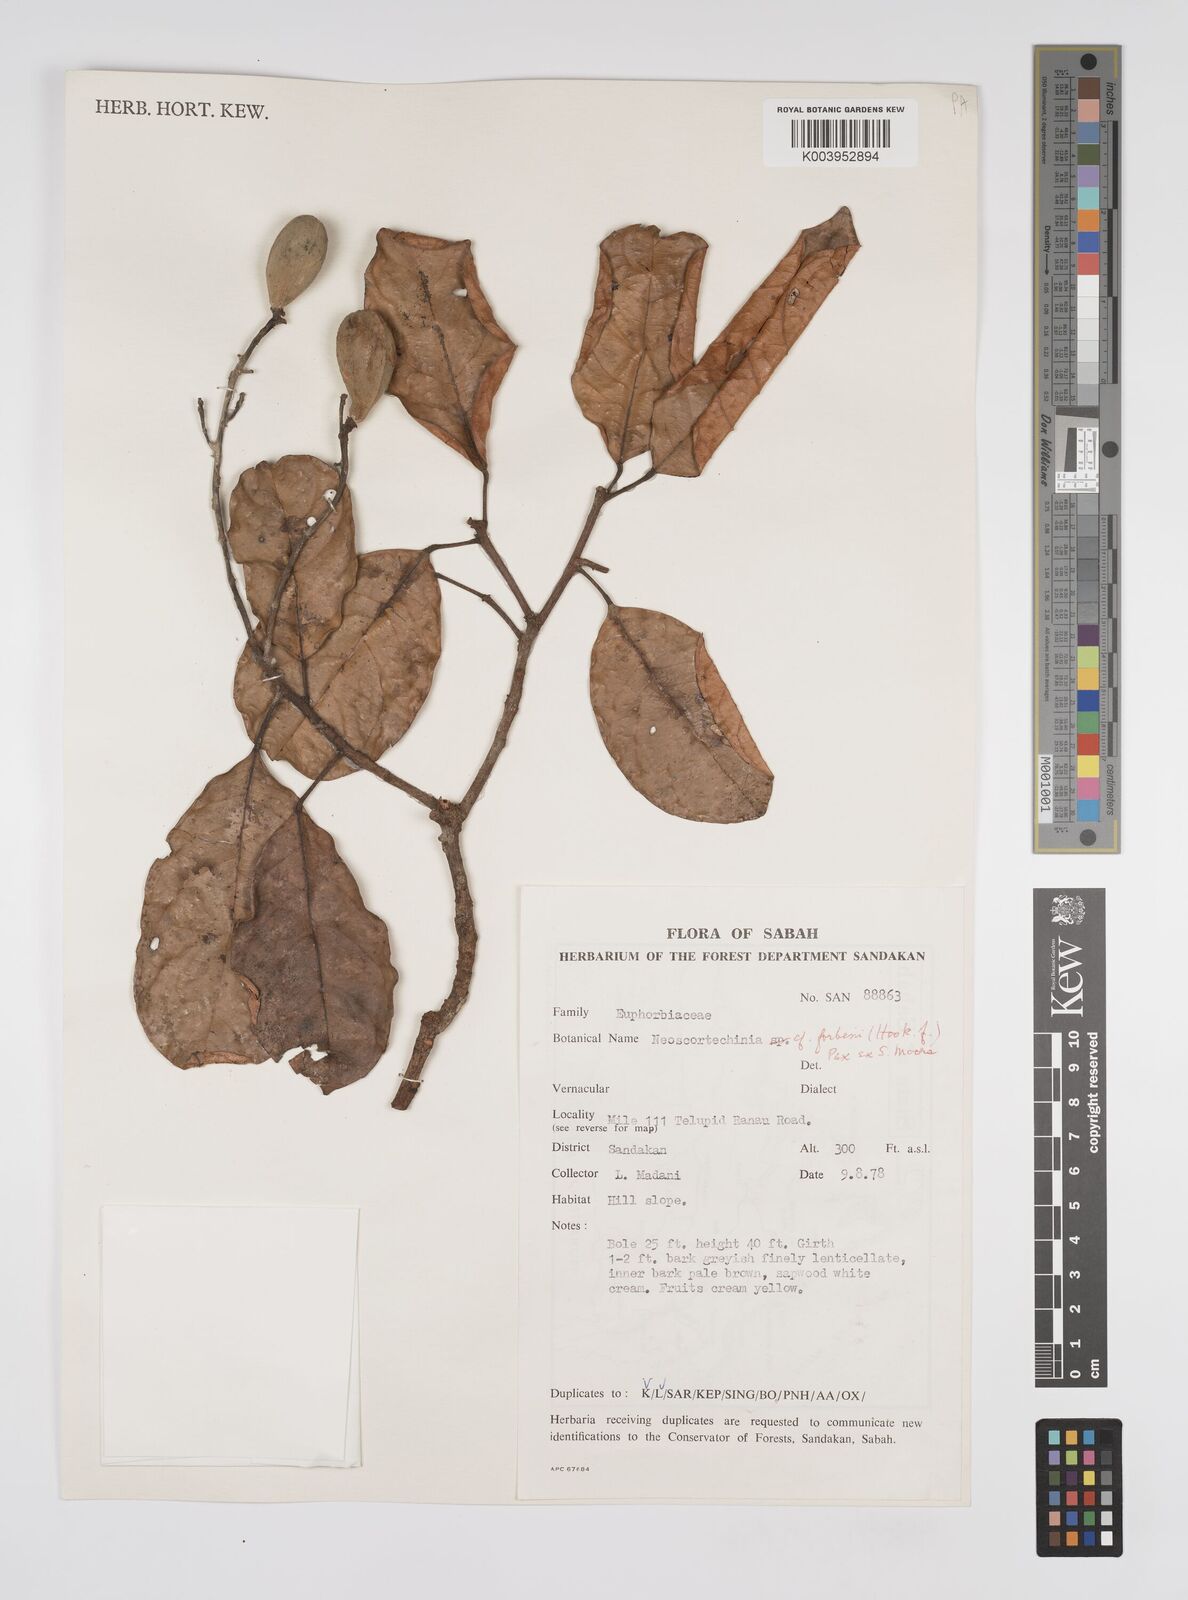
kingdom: Plantae
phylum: Tracheophyta
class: Magnoliopsida
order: Malpighiales
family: Euphorbiaceae
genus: Neoscortechinia
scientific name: Neoscortechinia philippinensis
